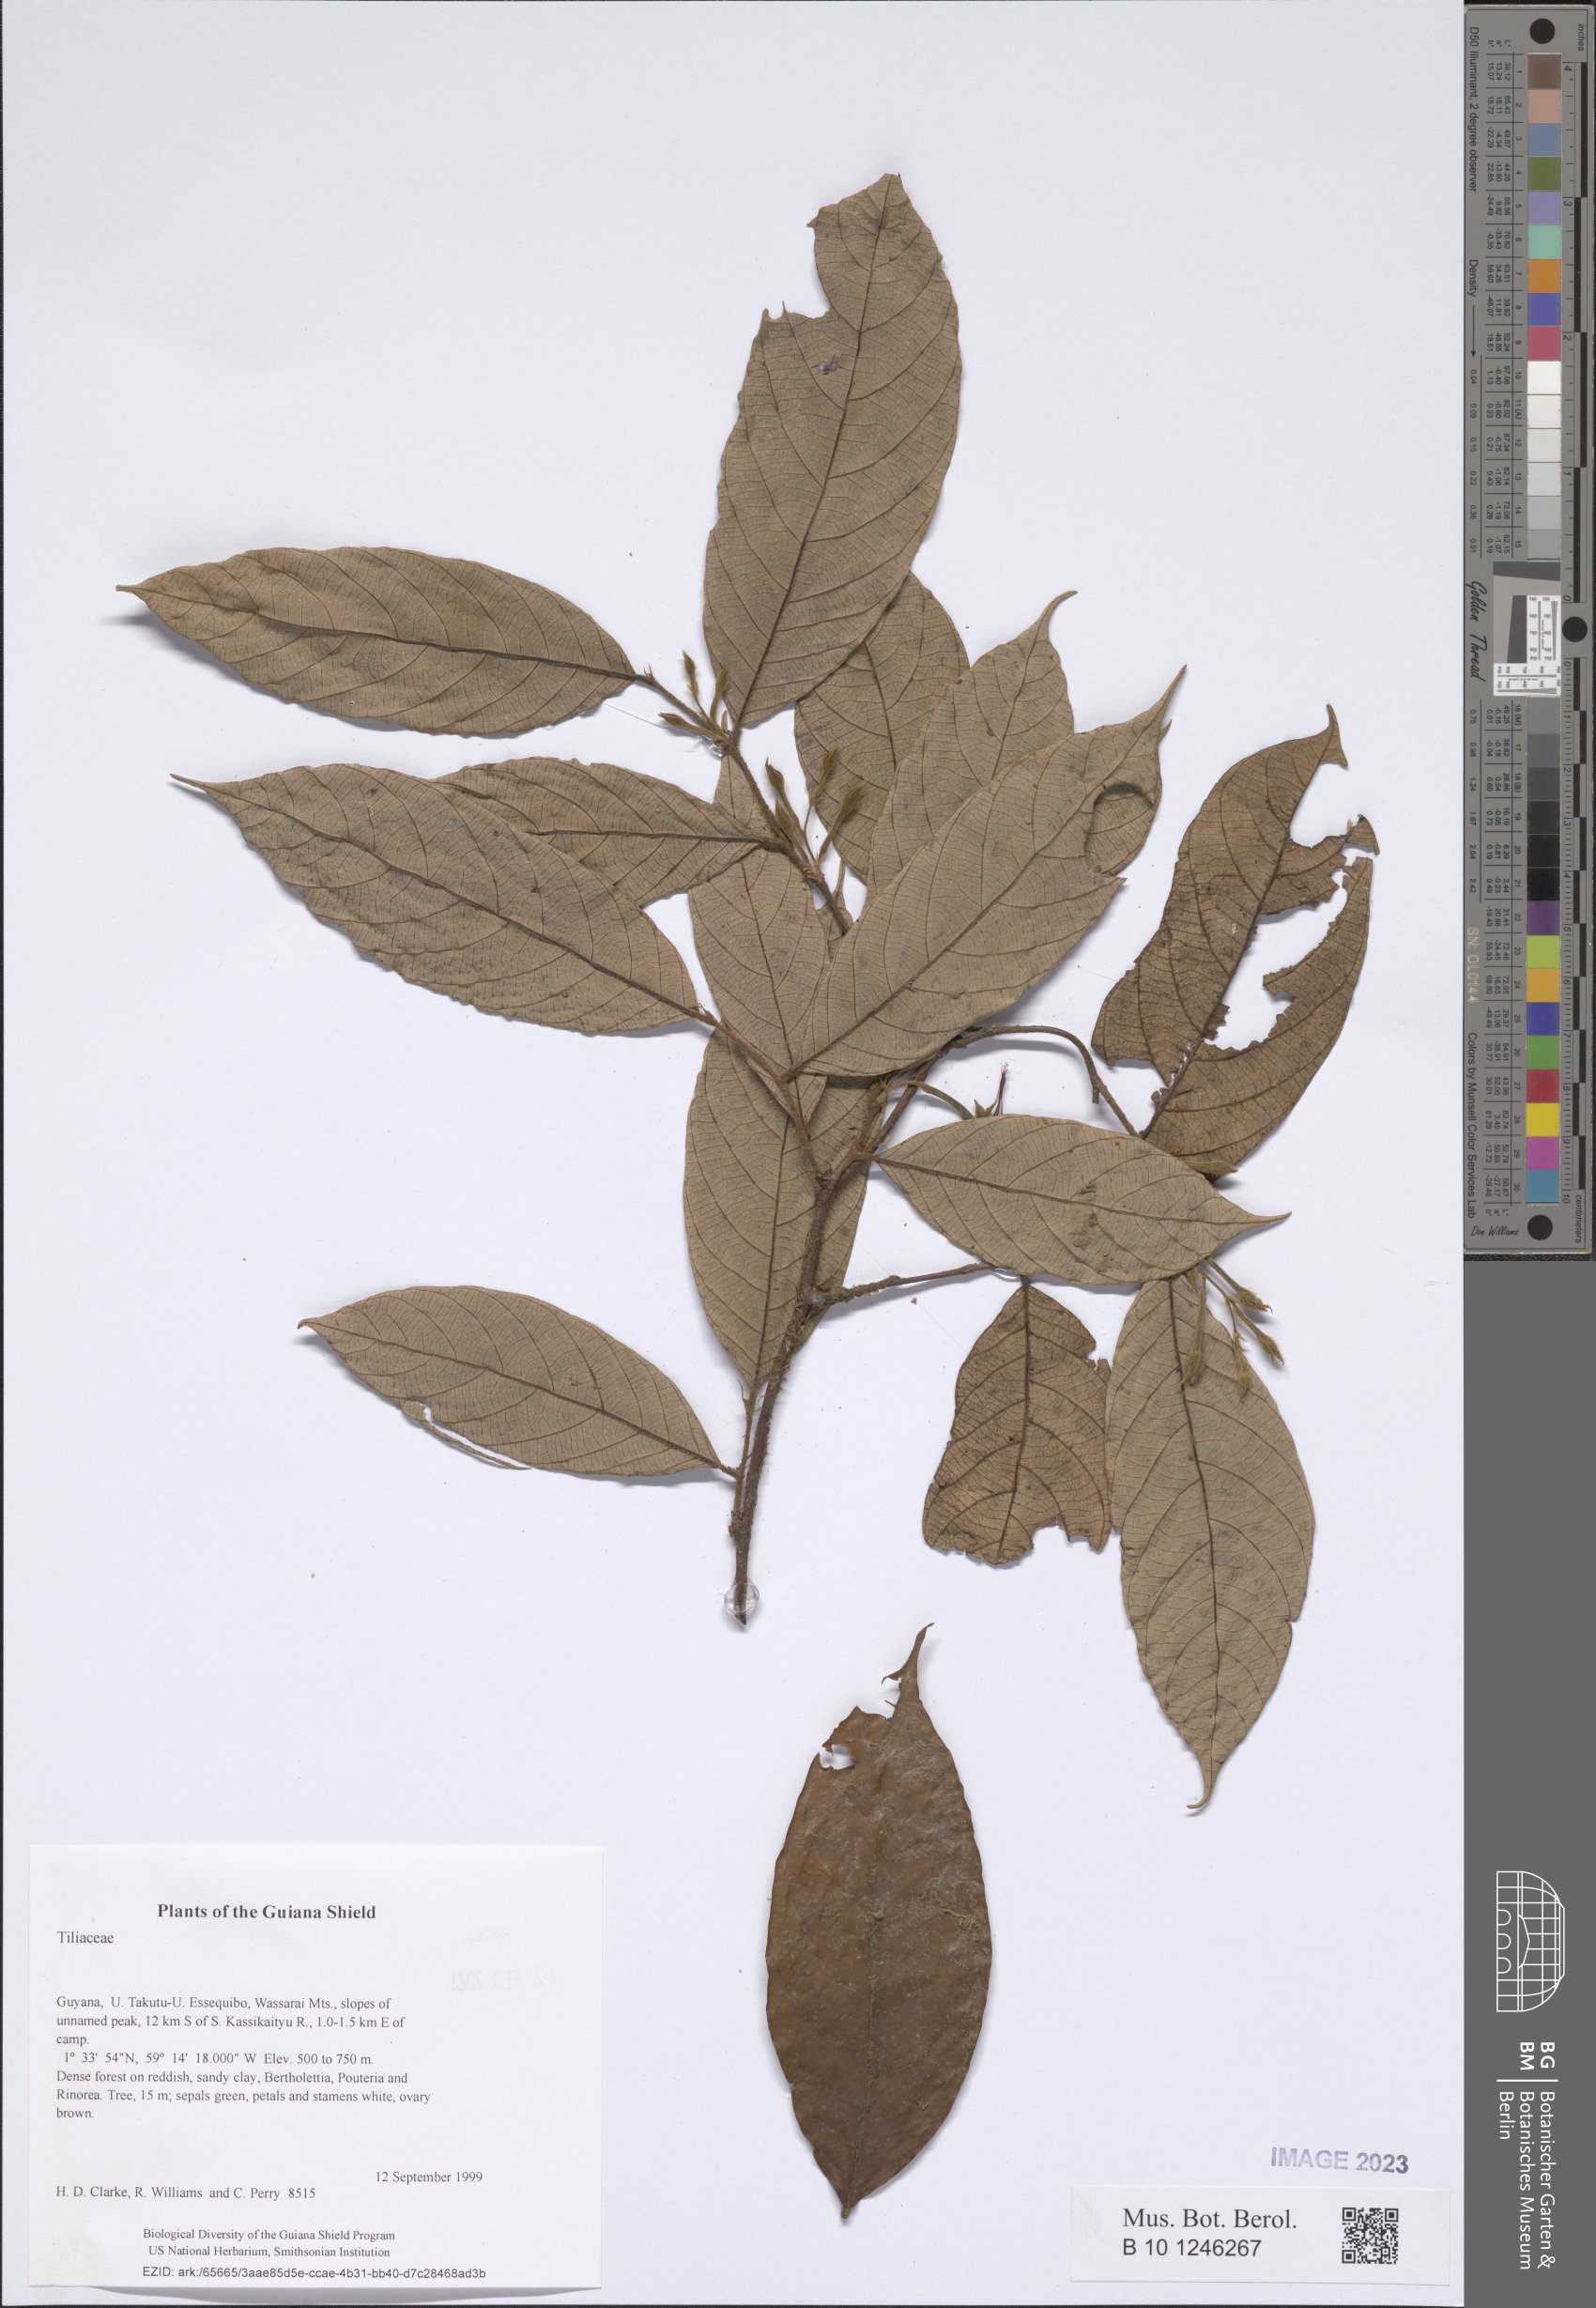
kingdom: Plantae
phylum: Tracheophyta
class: Magnoliopsida
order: Malvales
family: Tiliaceae
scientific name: Tiliaceae
